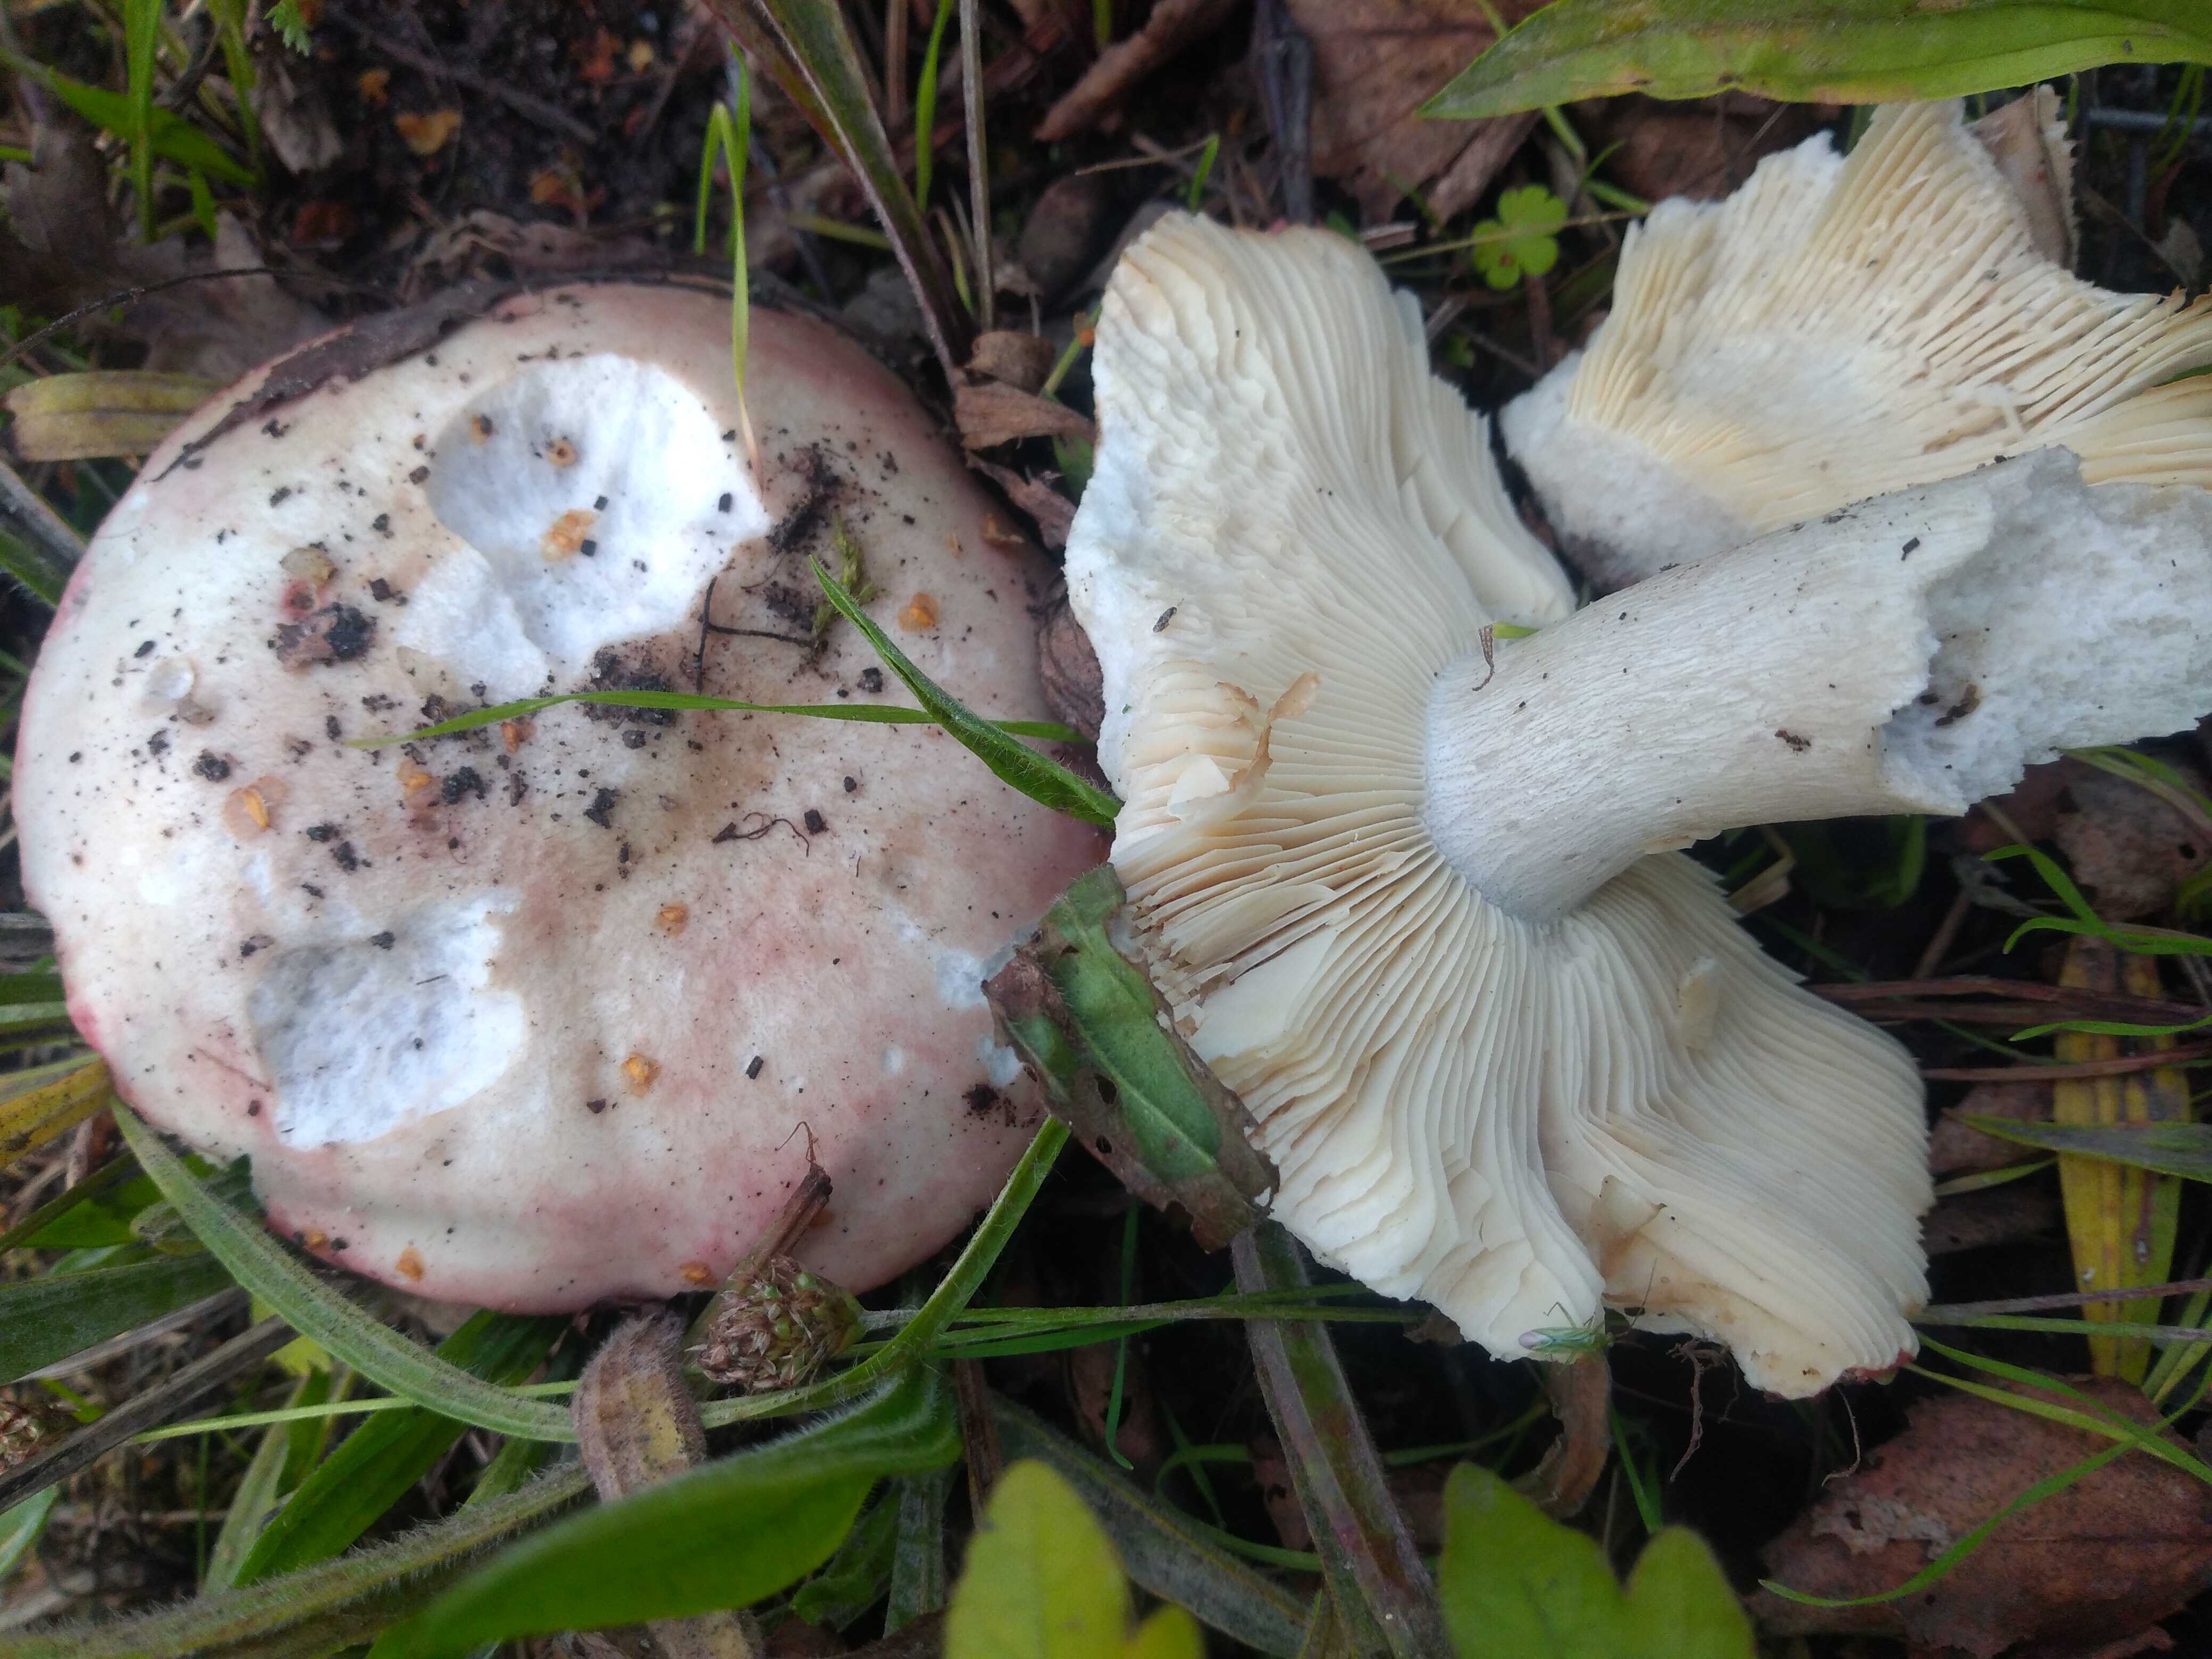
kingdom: Fungi
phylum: Basidiomycota
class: Agaricomycetes
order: Russulales
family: Russulaceae
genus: Russula
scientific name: Russula depallens
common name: falmende skørhat
